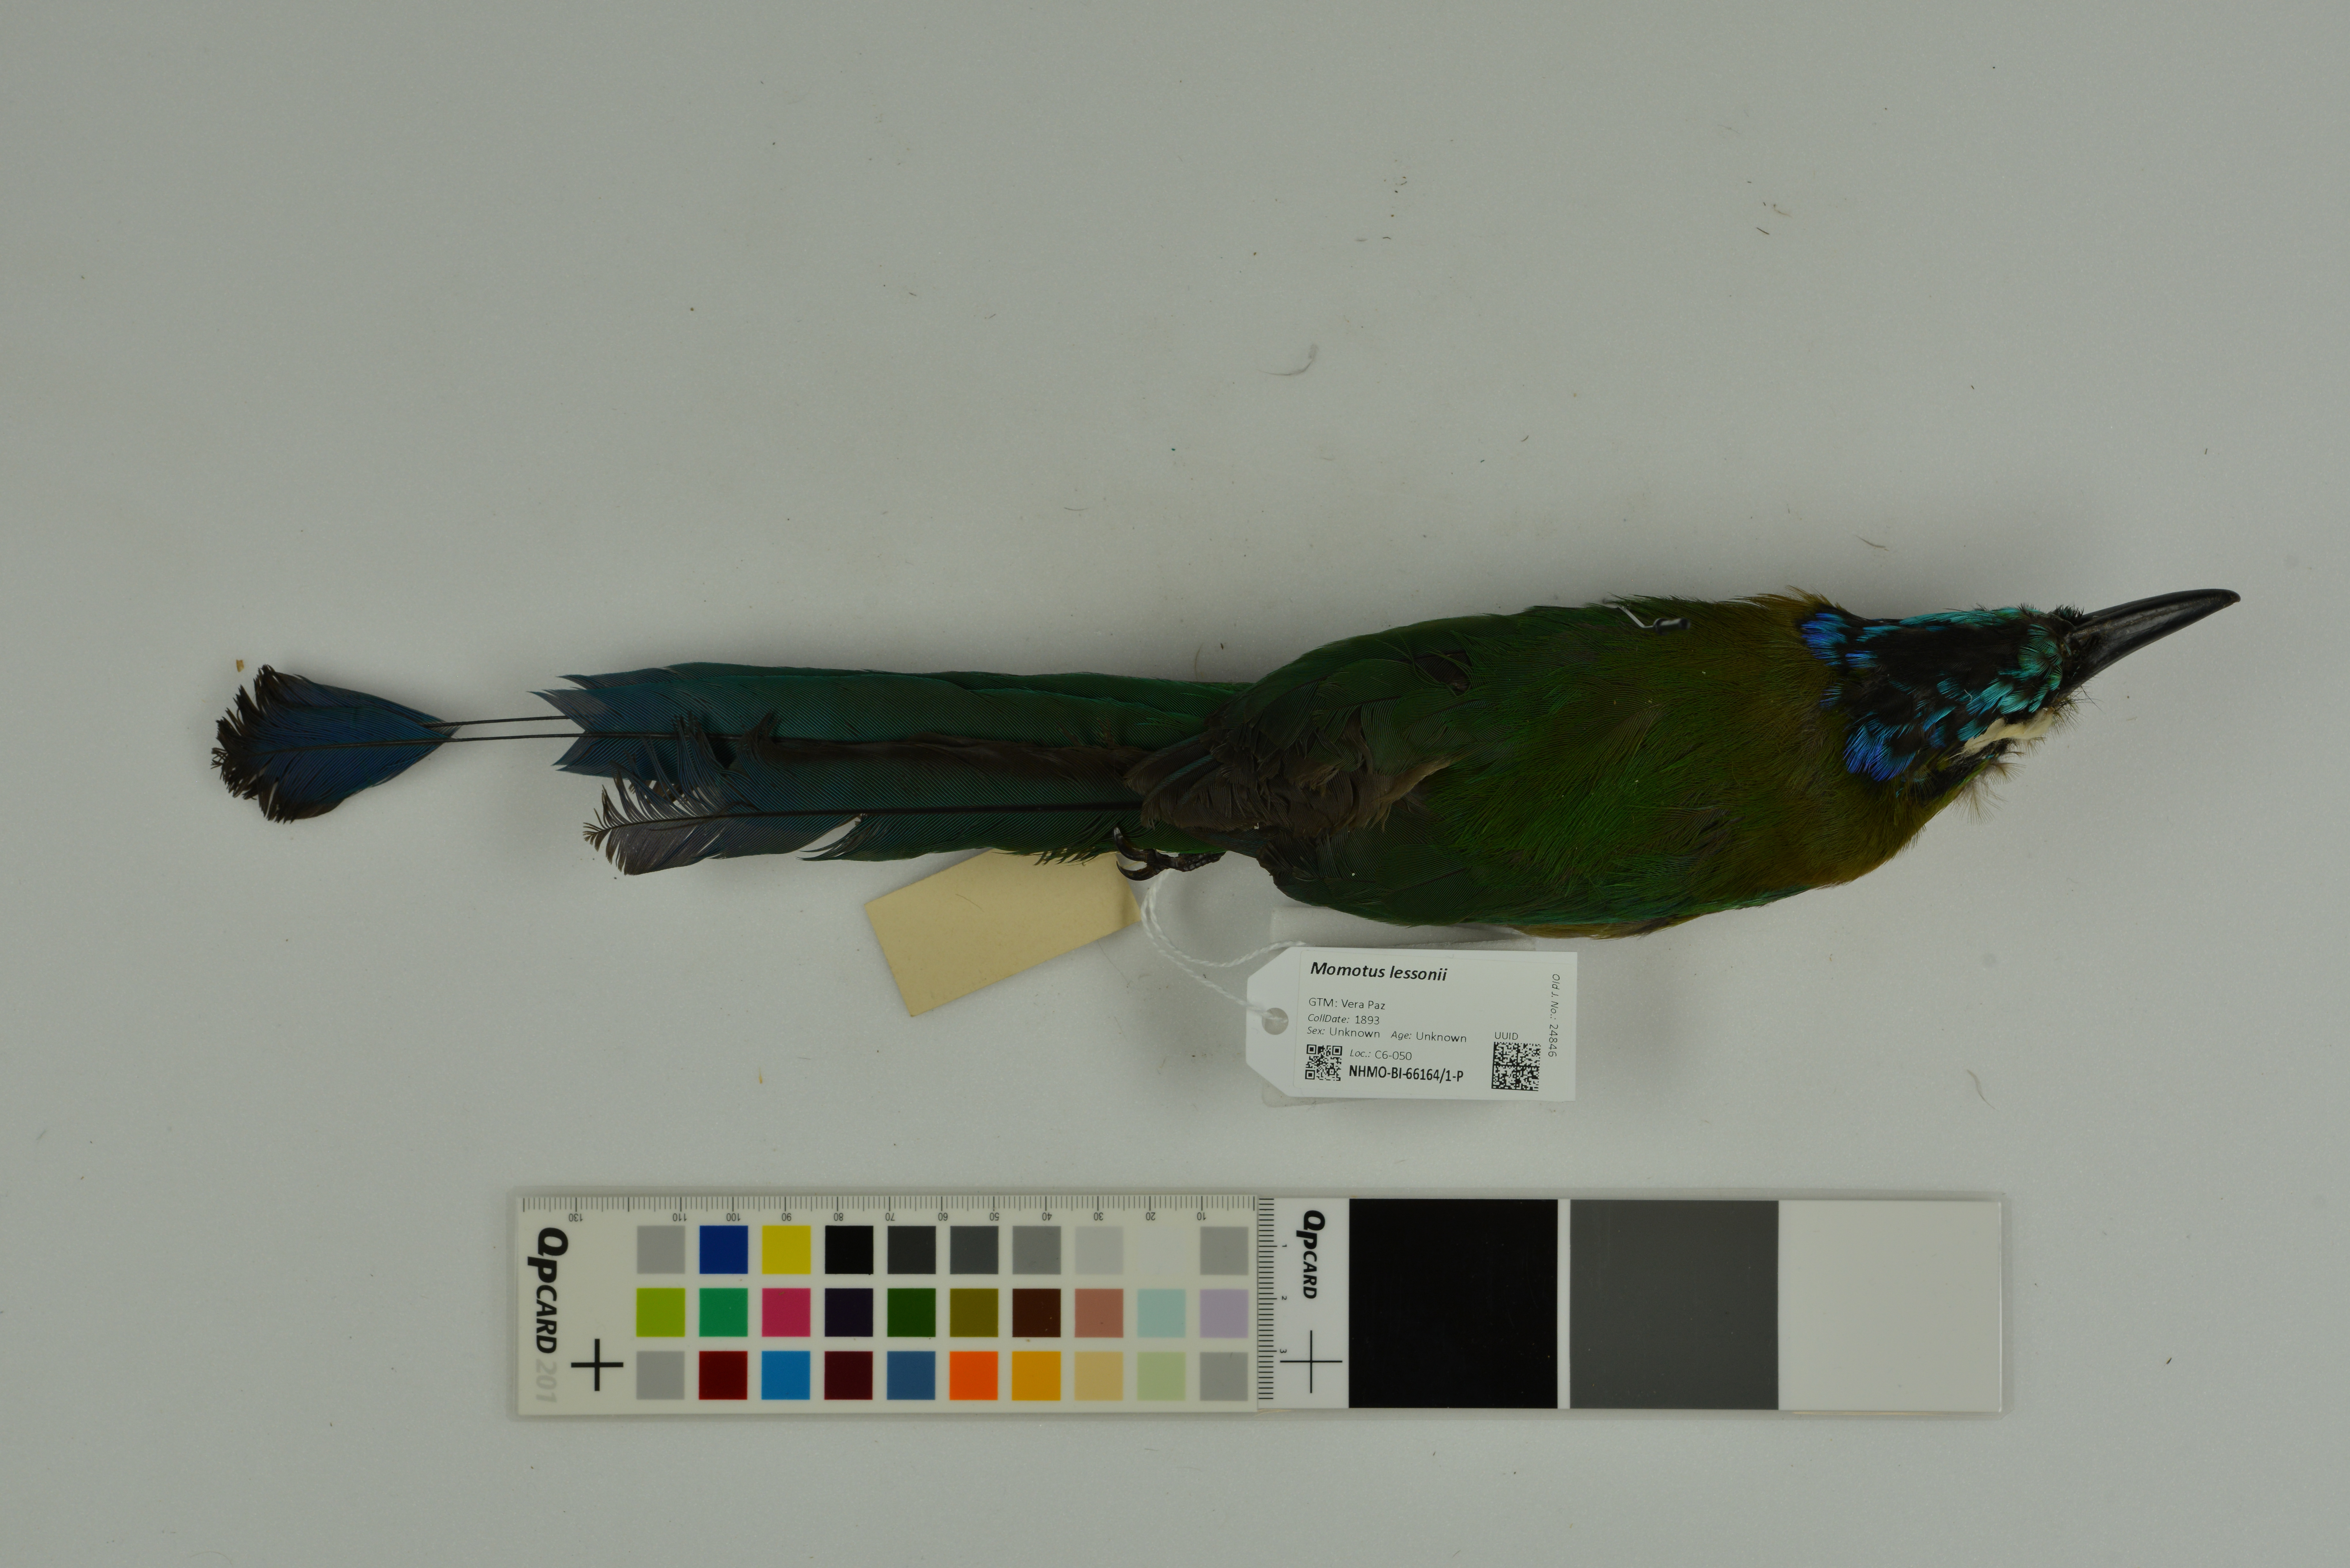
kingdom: Animalia
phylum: Chordata
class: Aves
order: Coraciiformes
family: Momotidae
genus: Momotus
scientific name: Momotus lessonii
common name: Lesson's motmot
